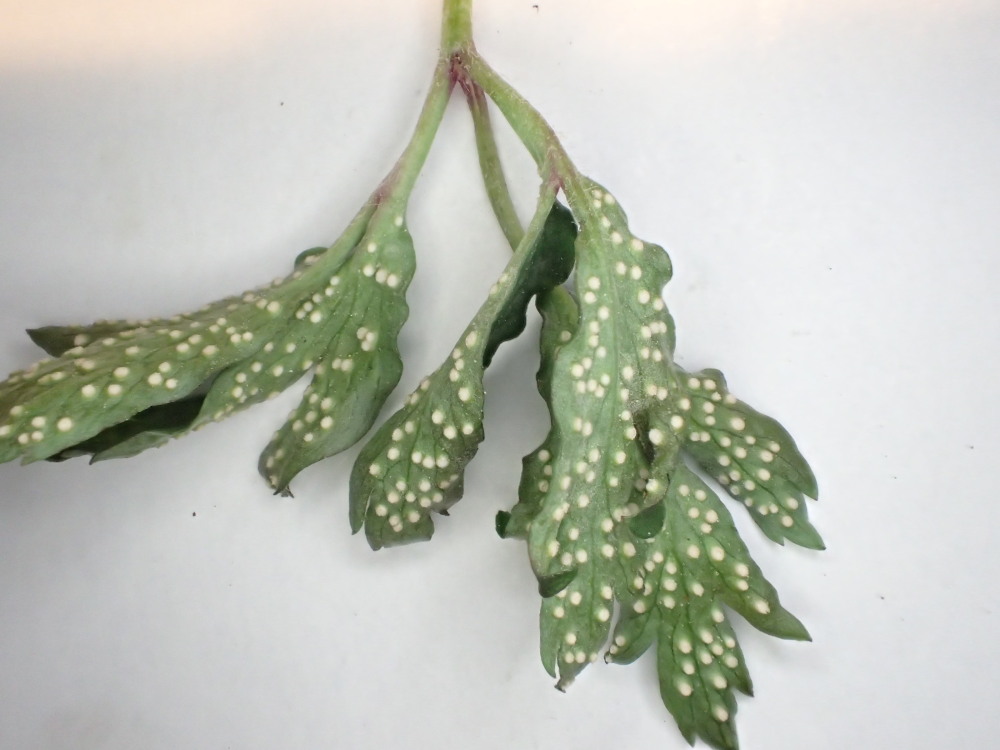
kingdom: Fungi
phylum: Basidiomycota
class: Pucciniomycetes
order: Pucciniales
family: Ochropsoraceae
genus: Ochropsora
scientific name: Ochropsora ariae
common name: anemone-okkerpletrust
